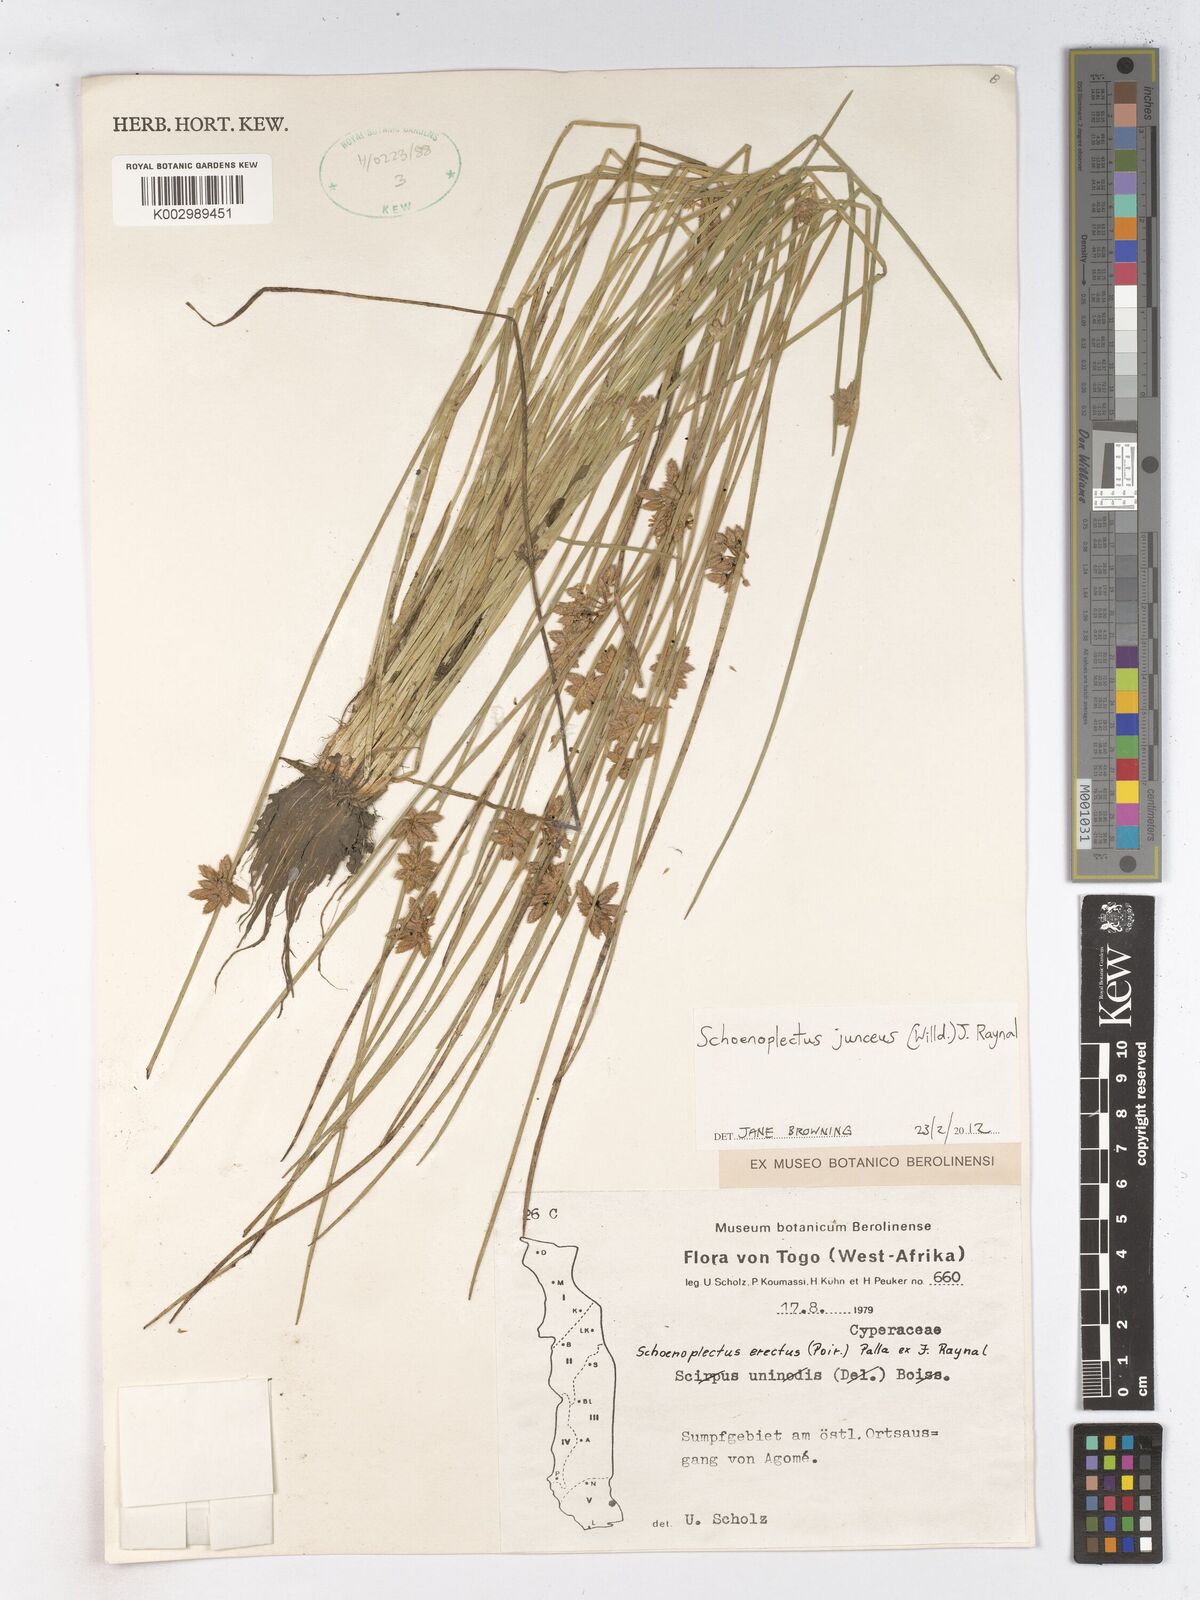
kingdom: Plantae
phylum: Tracheophyta
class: Liliopsida
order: Poales
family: Cyperaceae
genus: Schoenoplectiella
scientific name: Schoenoplectiella juncea
